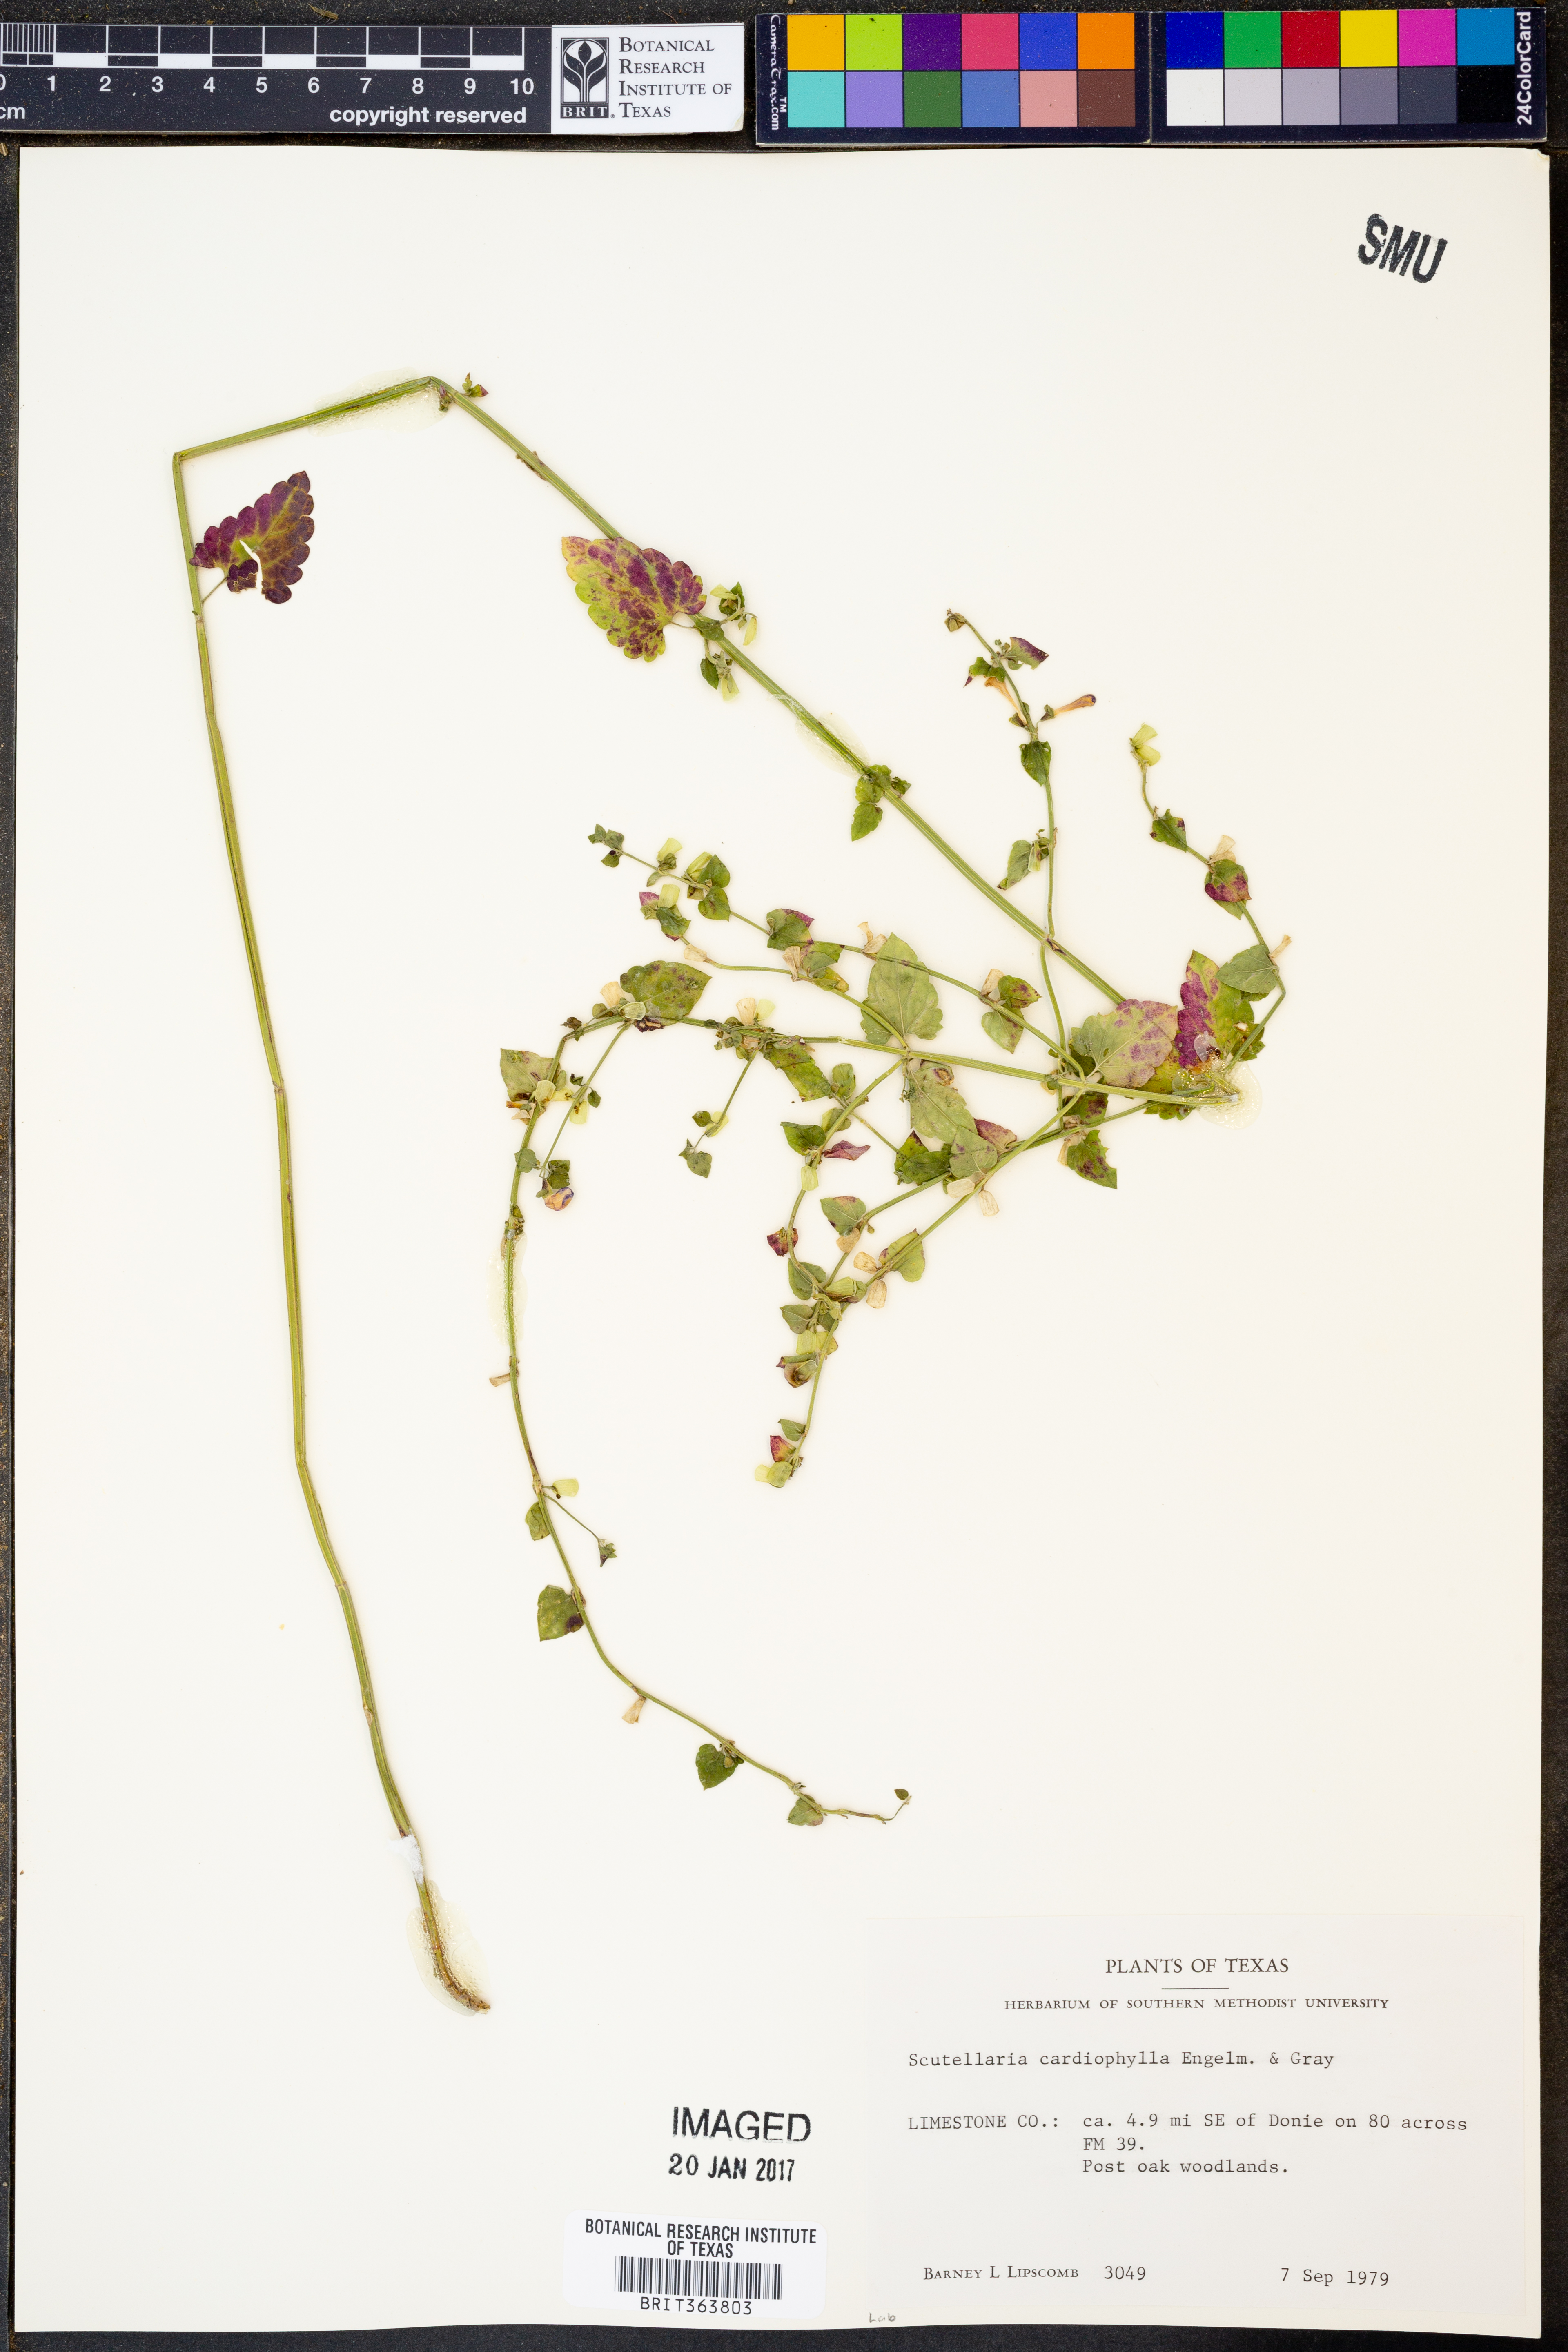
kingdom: Plantae
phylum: Tracheophyta
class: Magnoliopsida
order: Lamiales
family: Lamiaceae
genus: Scutellaria
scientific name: Scutellaria cardiophylla
